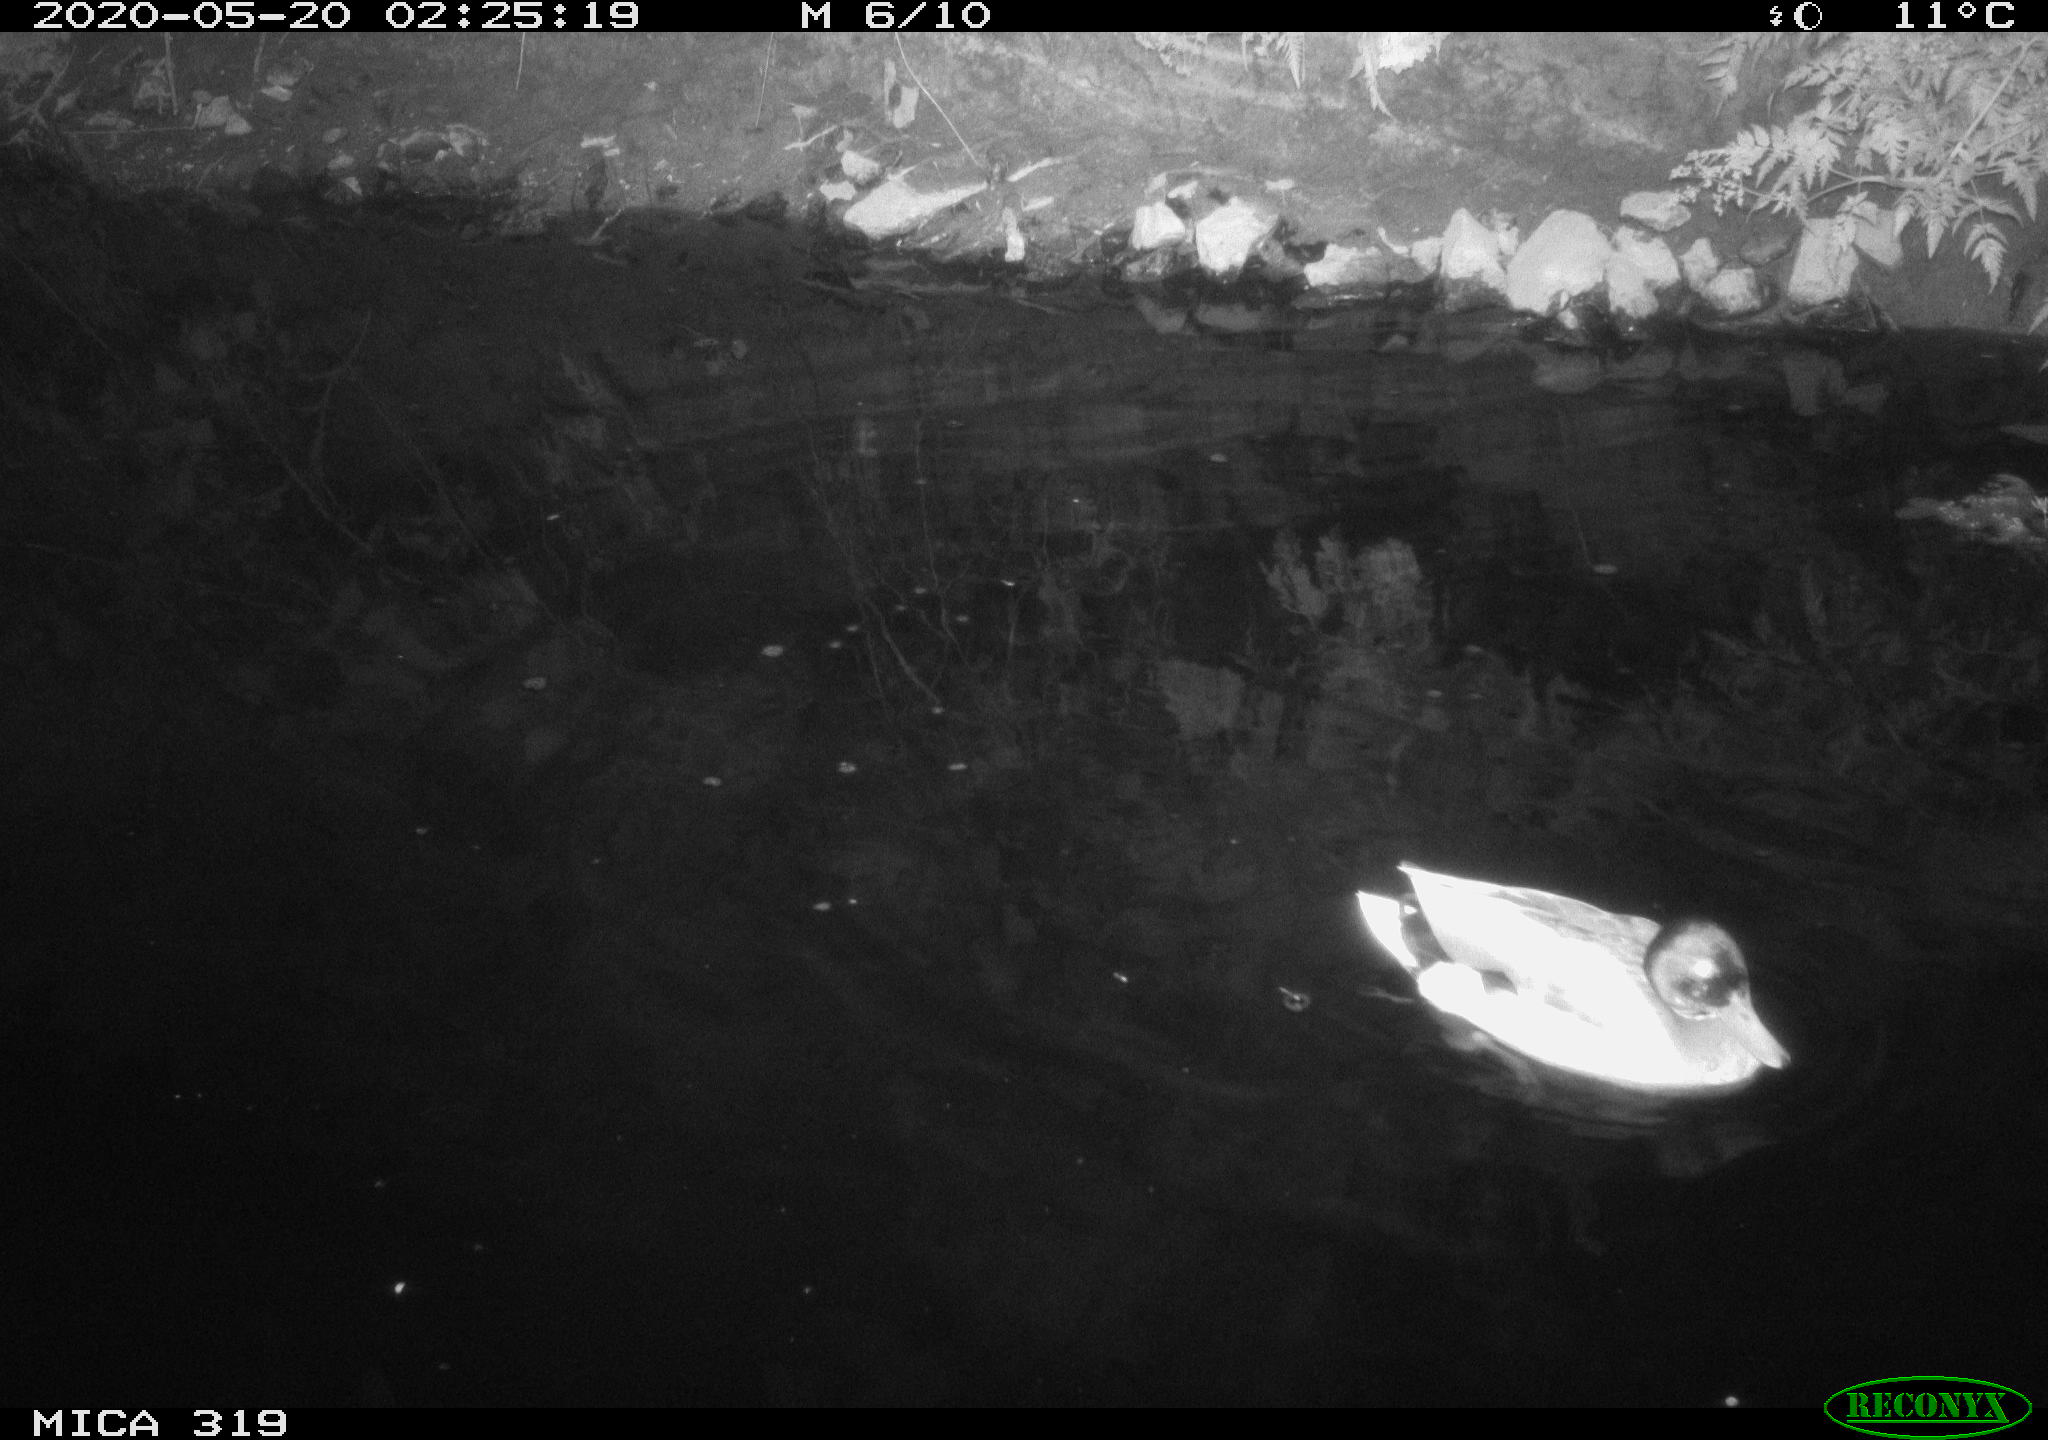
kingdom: Animalia
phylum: Chordata
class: Aves
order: Anseriformes
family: Anatidae
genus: Anas
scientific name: Anas platyrhynchos
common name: Mallard
